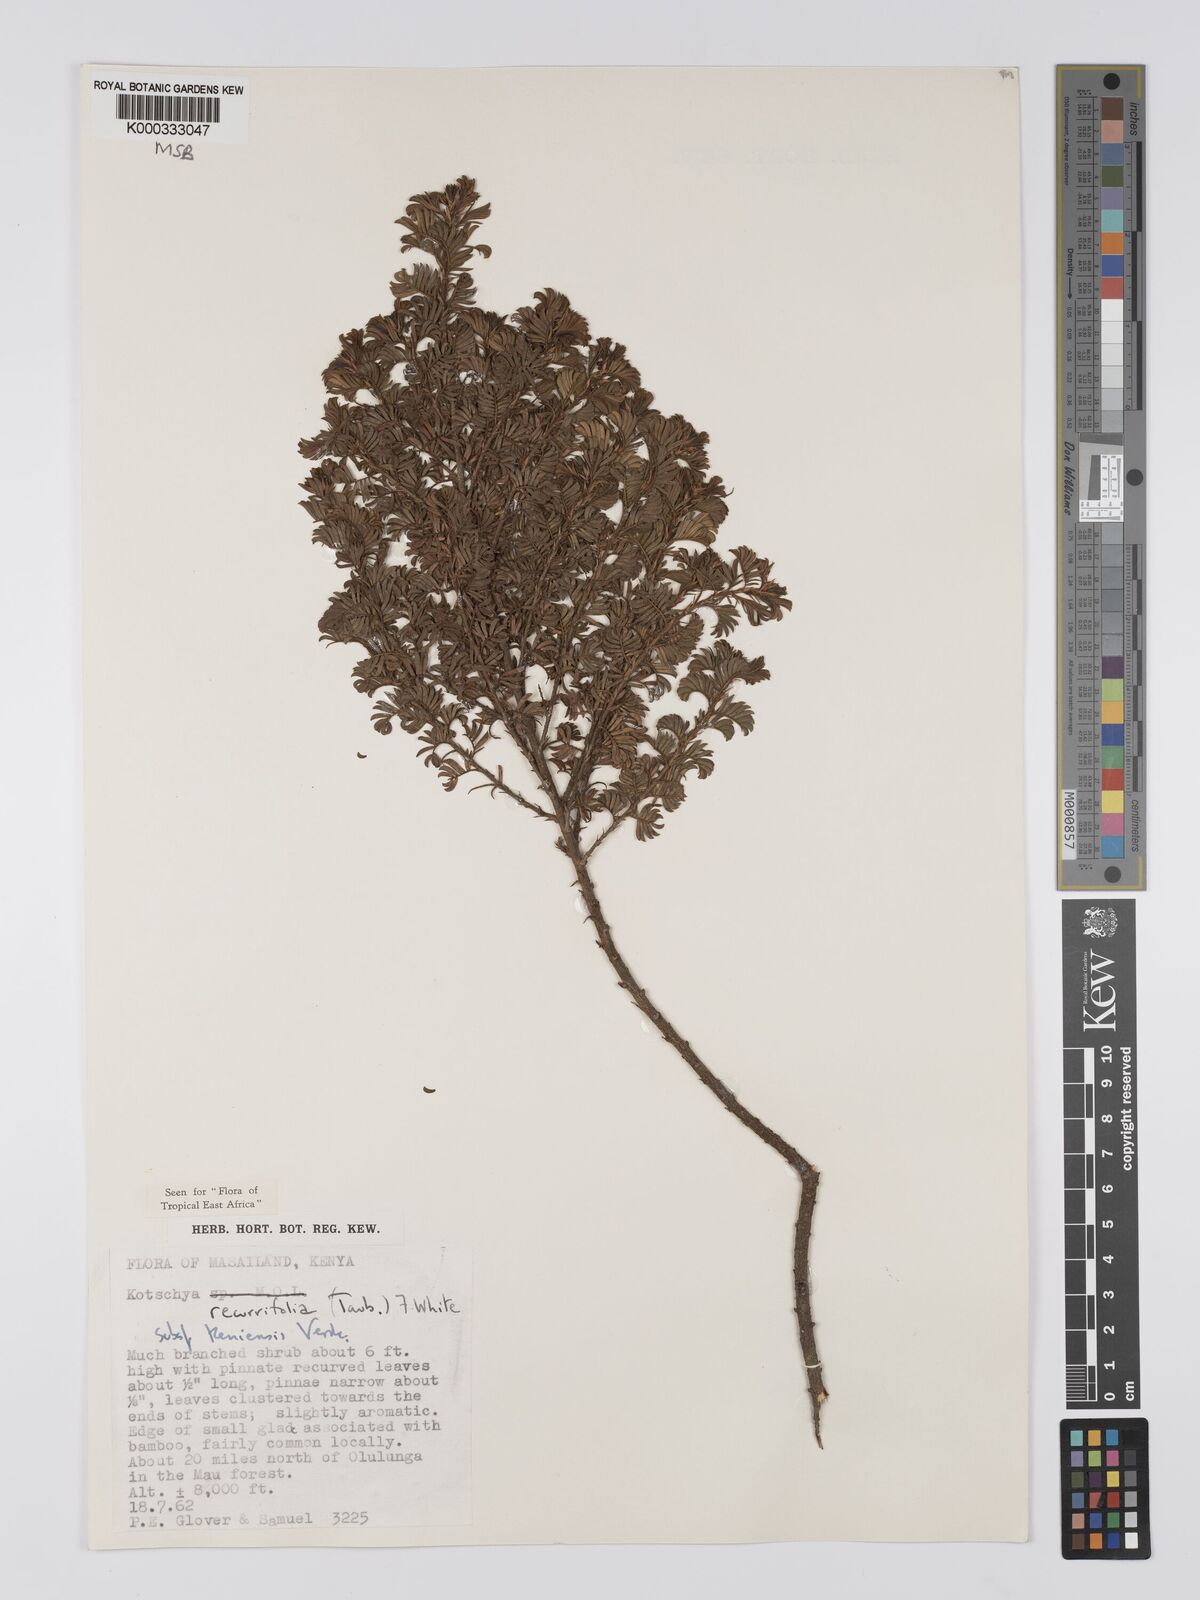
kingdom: Plantae
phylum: Tracheophyta
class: Magnoliopsida
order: Fabales
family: Fabaceae
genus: Kotschya
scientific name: Kotschya recurvifolia
